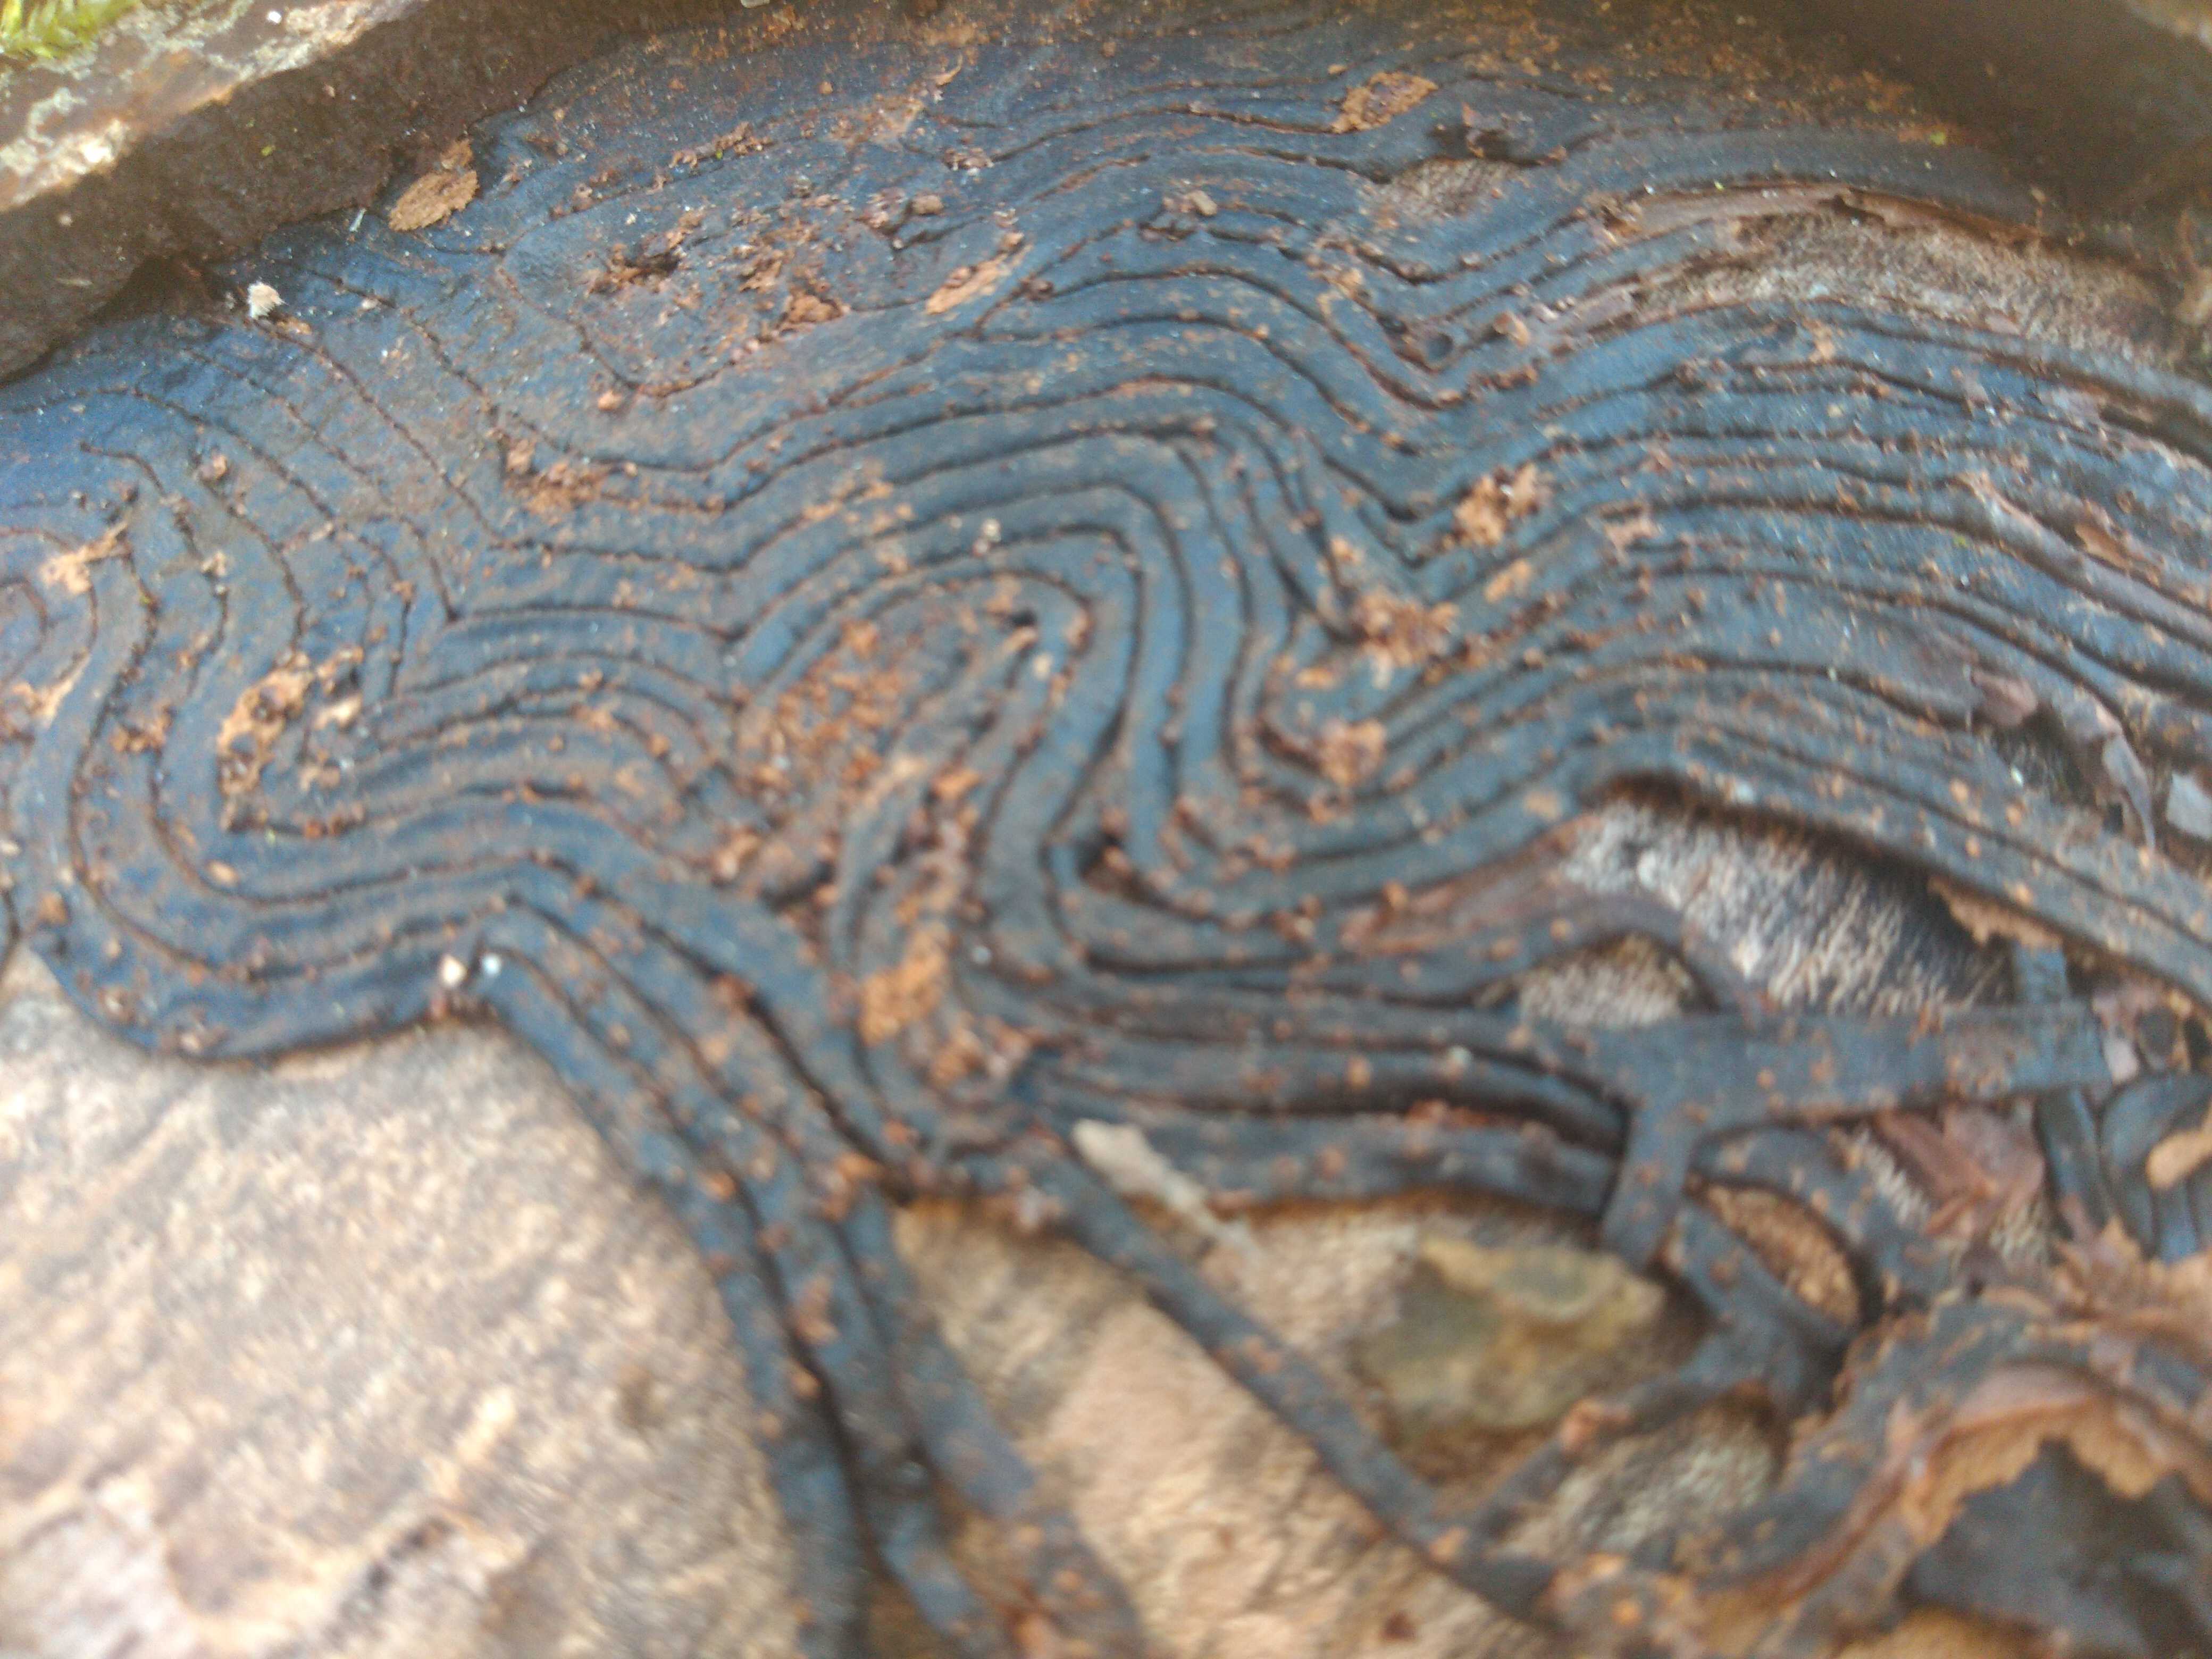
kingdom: Fungi
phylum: Basidiomycota
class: Agaricomycetes
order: Agaricales
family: Physalacriaceae
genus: Armillaria
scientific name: Armillaria
